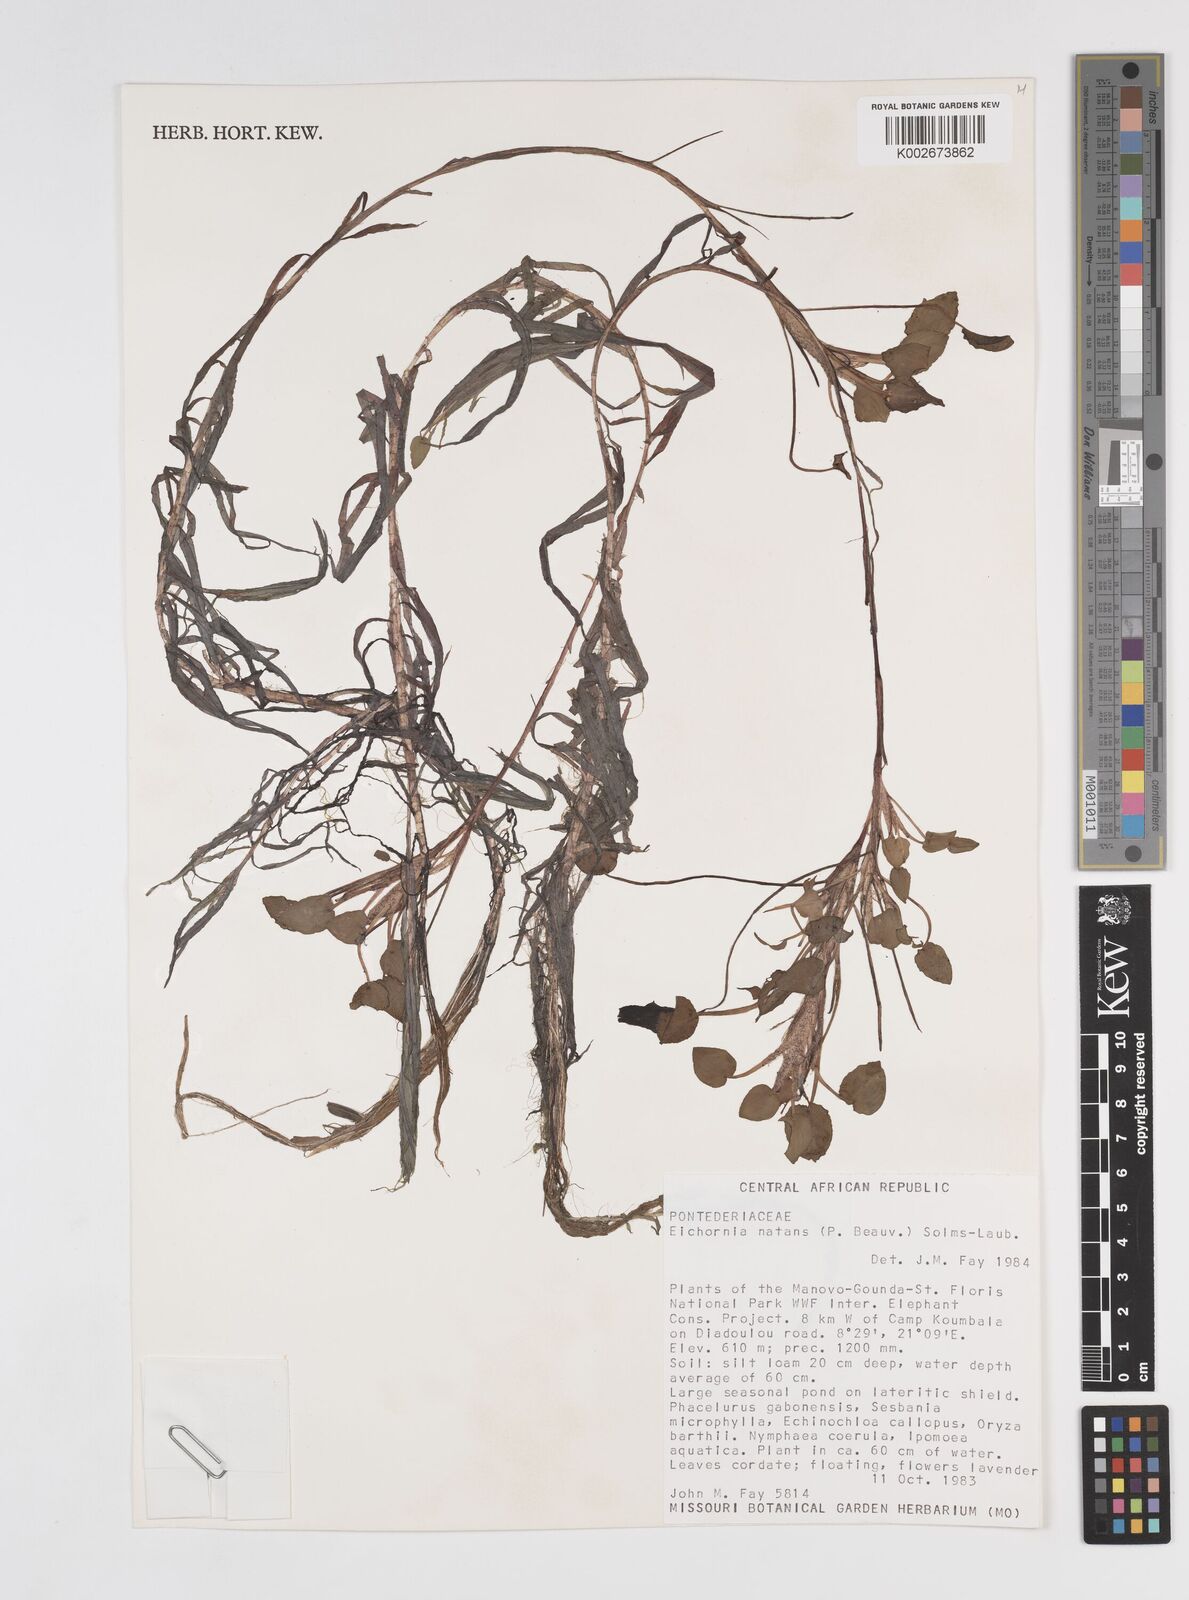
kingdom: Plantae
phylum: Tracheophyta
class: Liliopsida
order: Commelinales
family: Pontederiaceae
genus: Pontederia
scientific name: Pontederia natans
